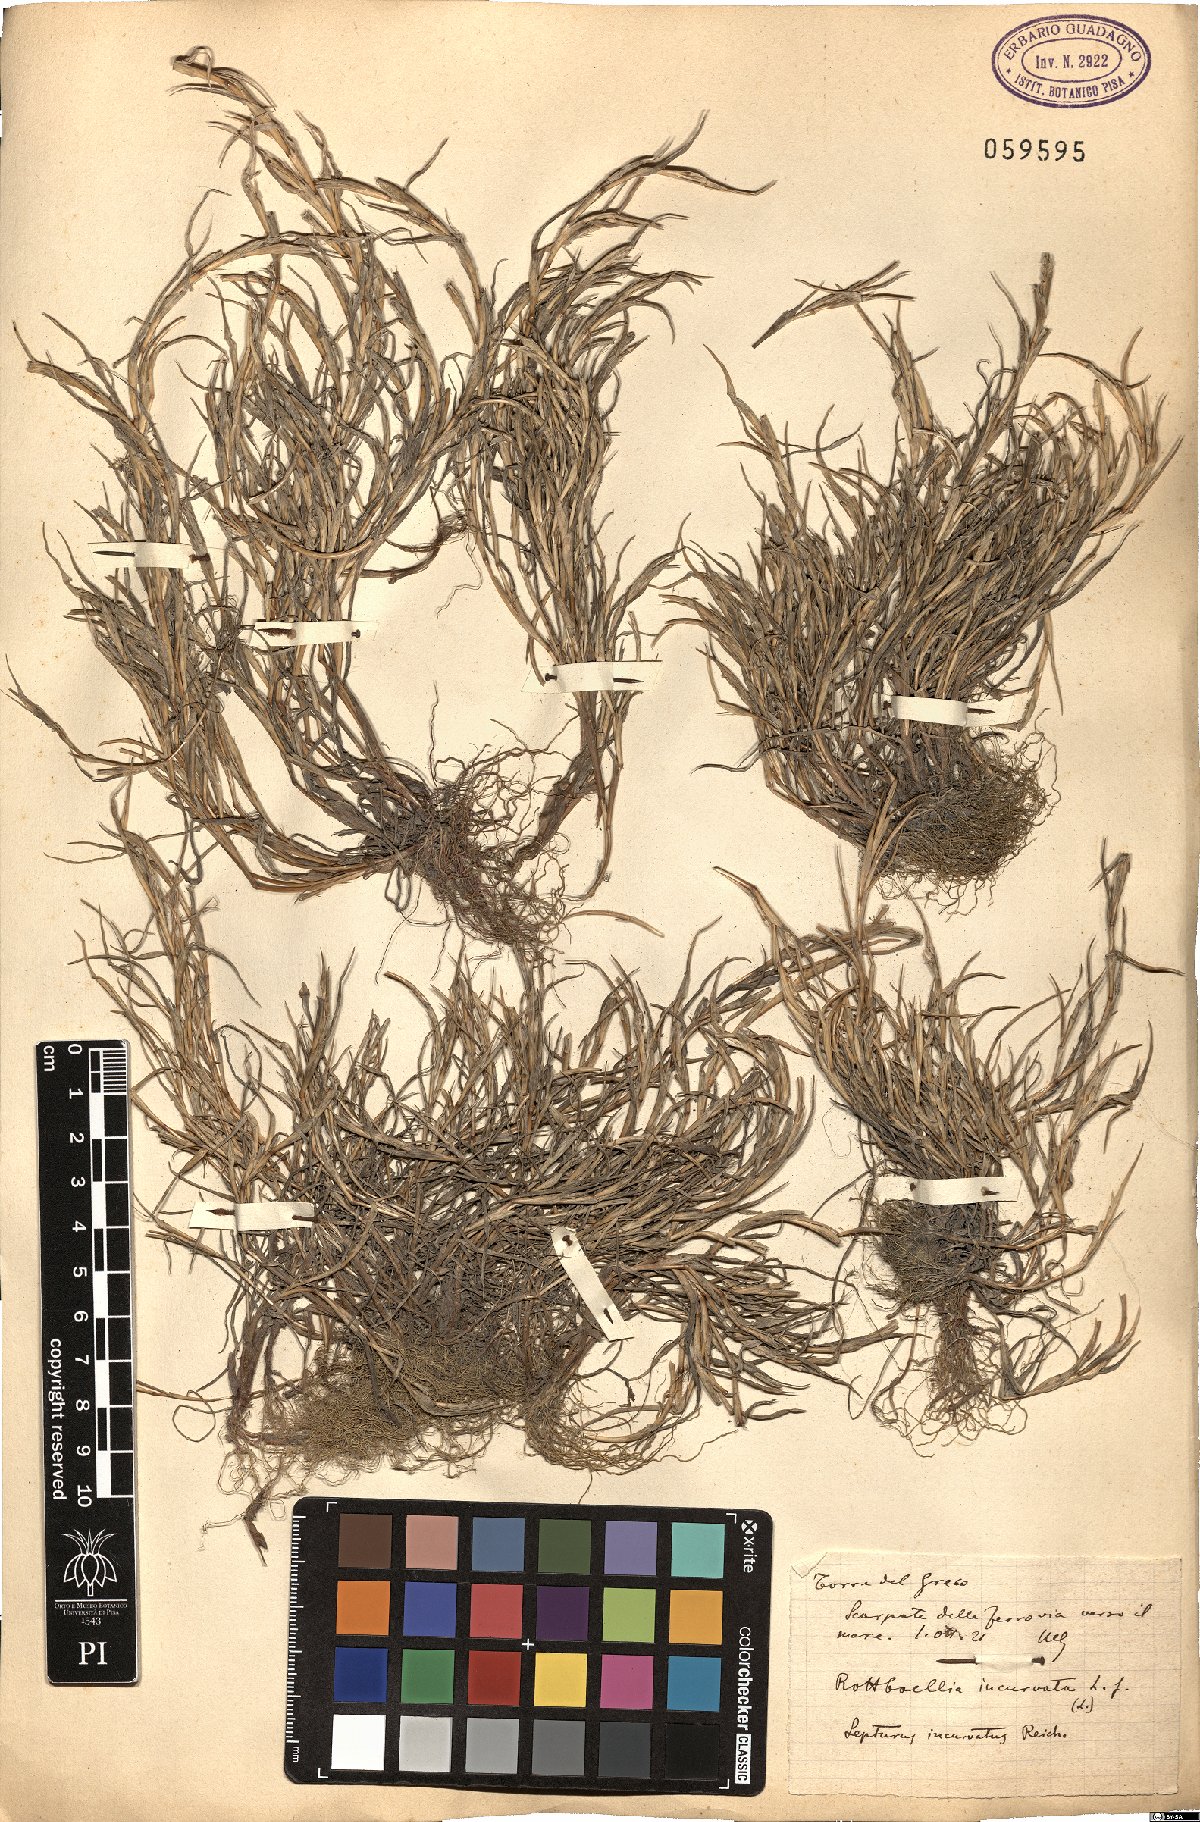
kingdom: Plantae
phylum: Tracheophyta
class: Liliopsida
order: Poales
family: Poaceae
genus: Parapholis
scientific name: Parapholis incurva
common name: Curved sicklegrass
